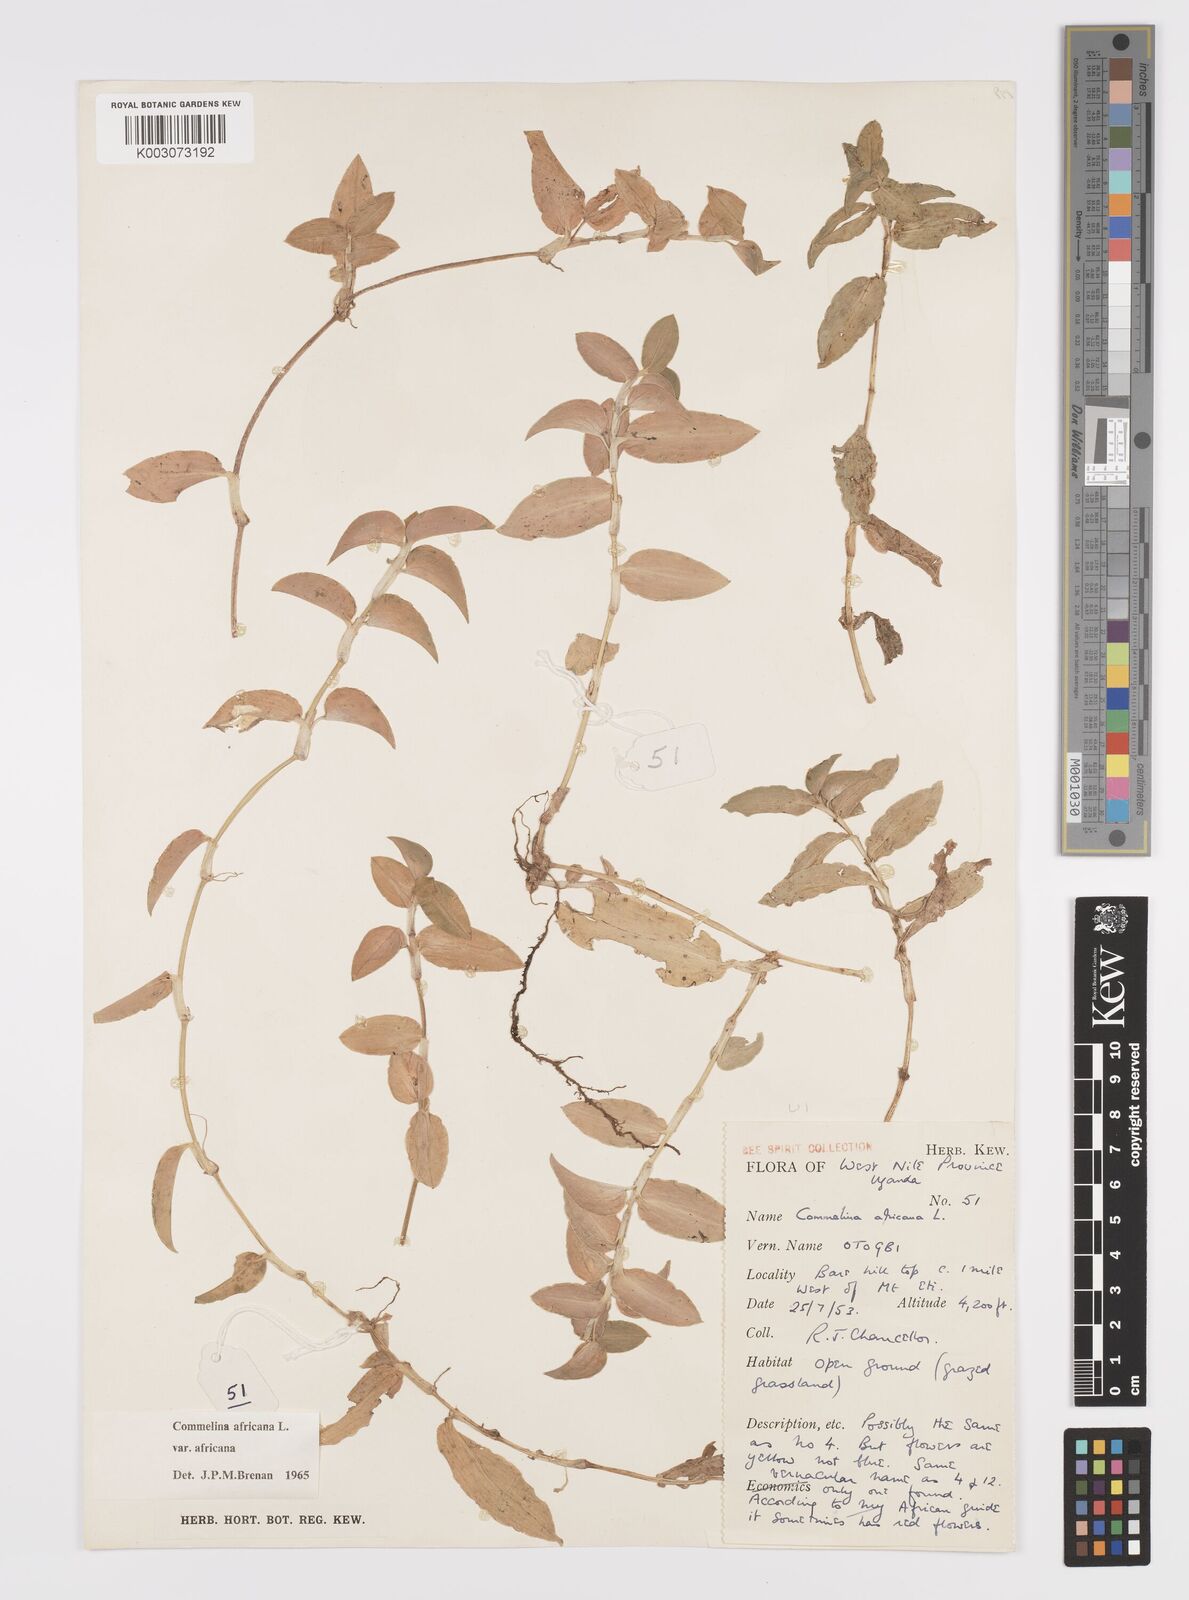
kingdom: Plantae
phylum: Tracheophyta
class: Liliopsida
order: Commelinales
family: Commelinaceae
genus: Commelina
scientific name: Commelina africana
